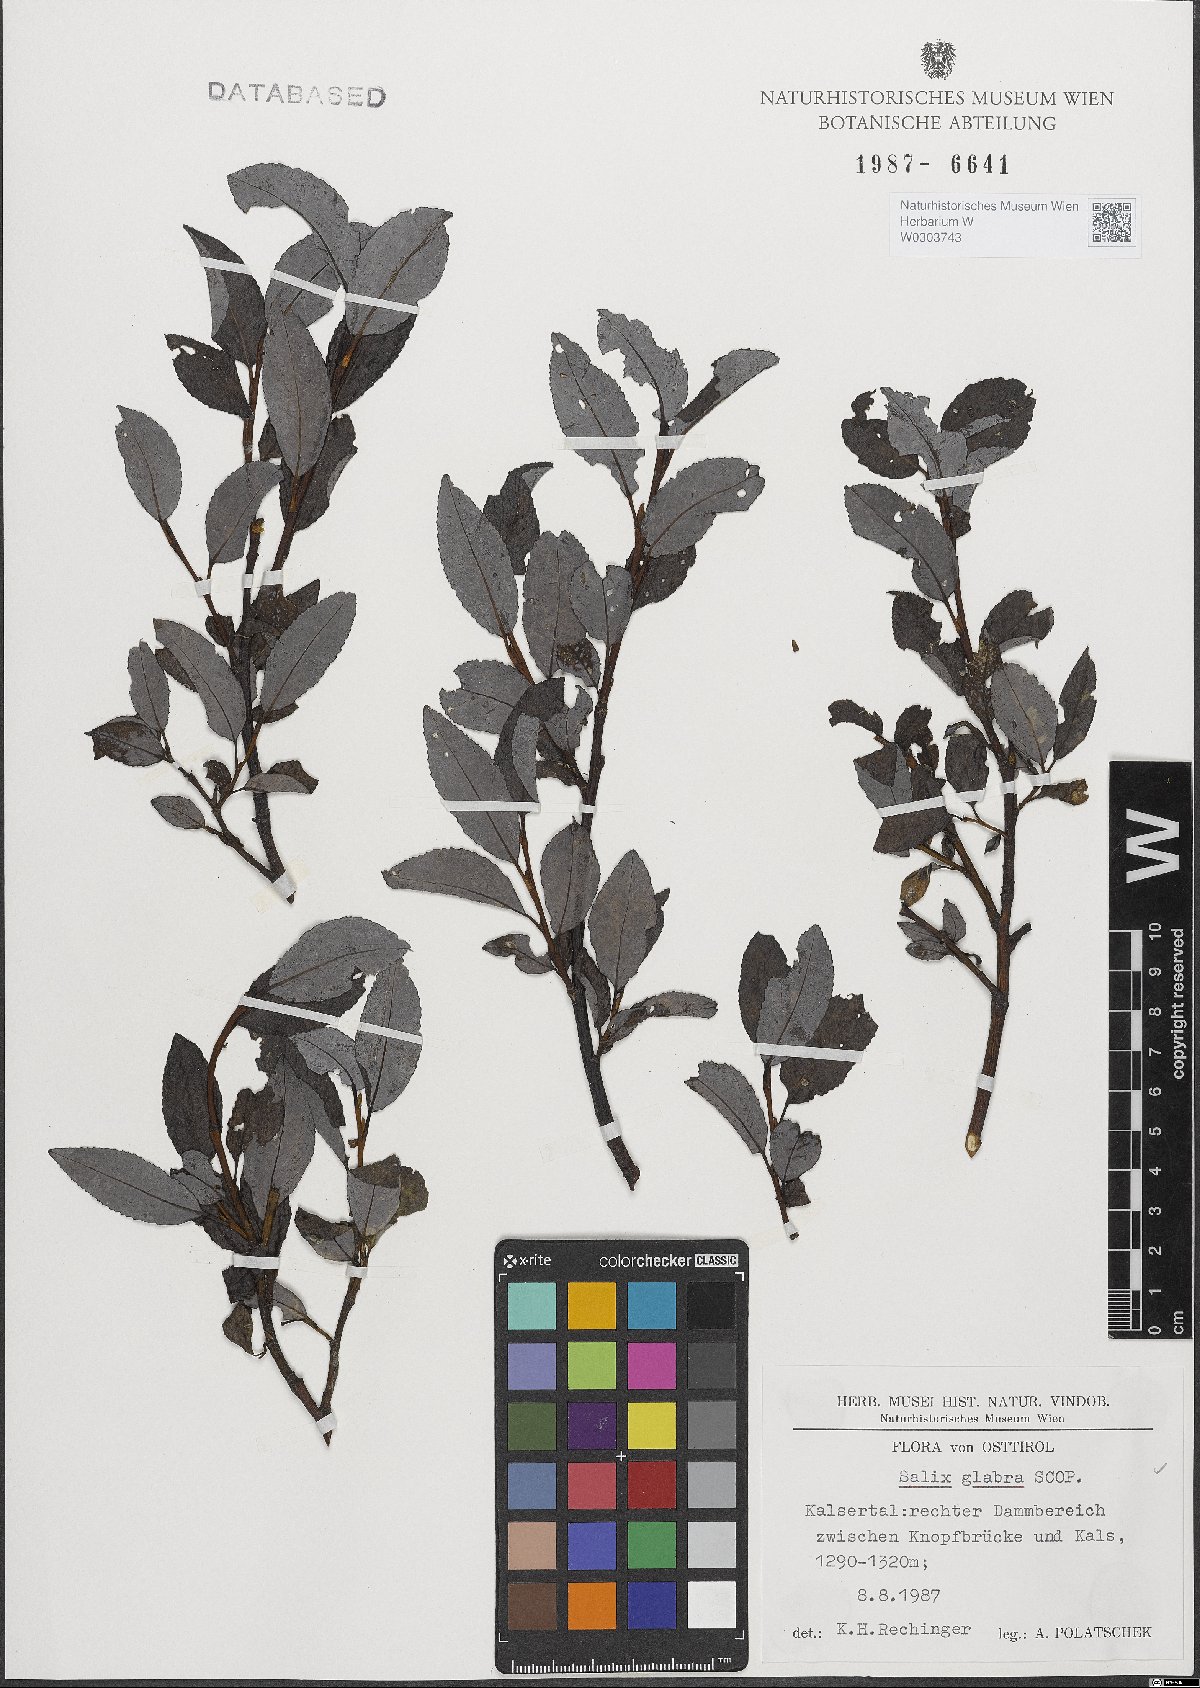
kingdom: Plantae
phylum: Tracheophyta
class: Magnoliopsida
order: Malpighiales
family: Salicaceae
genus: Salix
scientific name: Salix glabra
